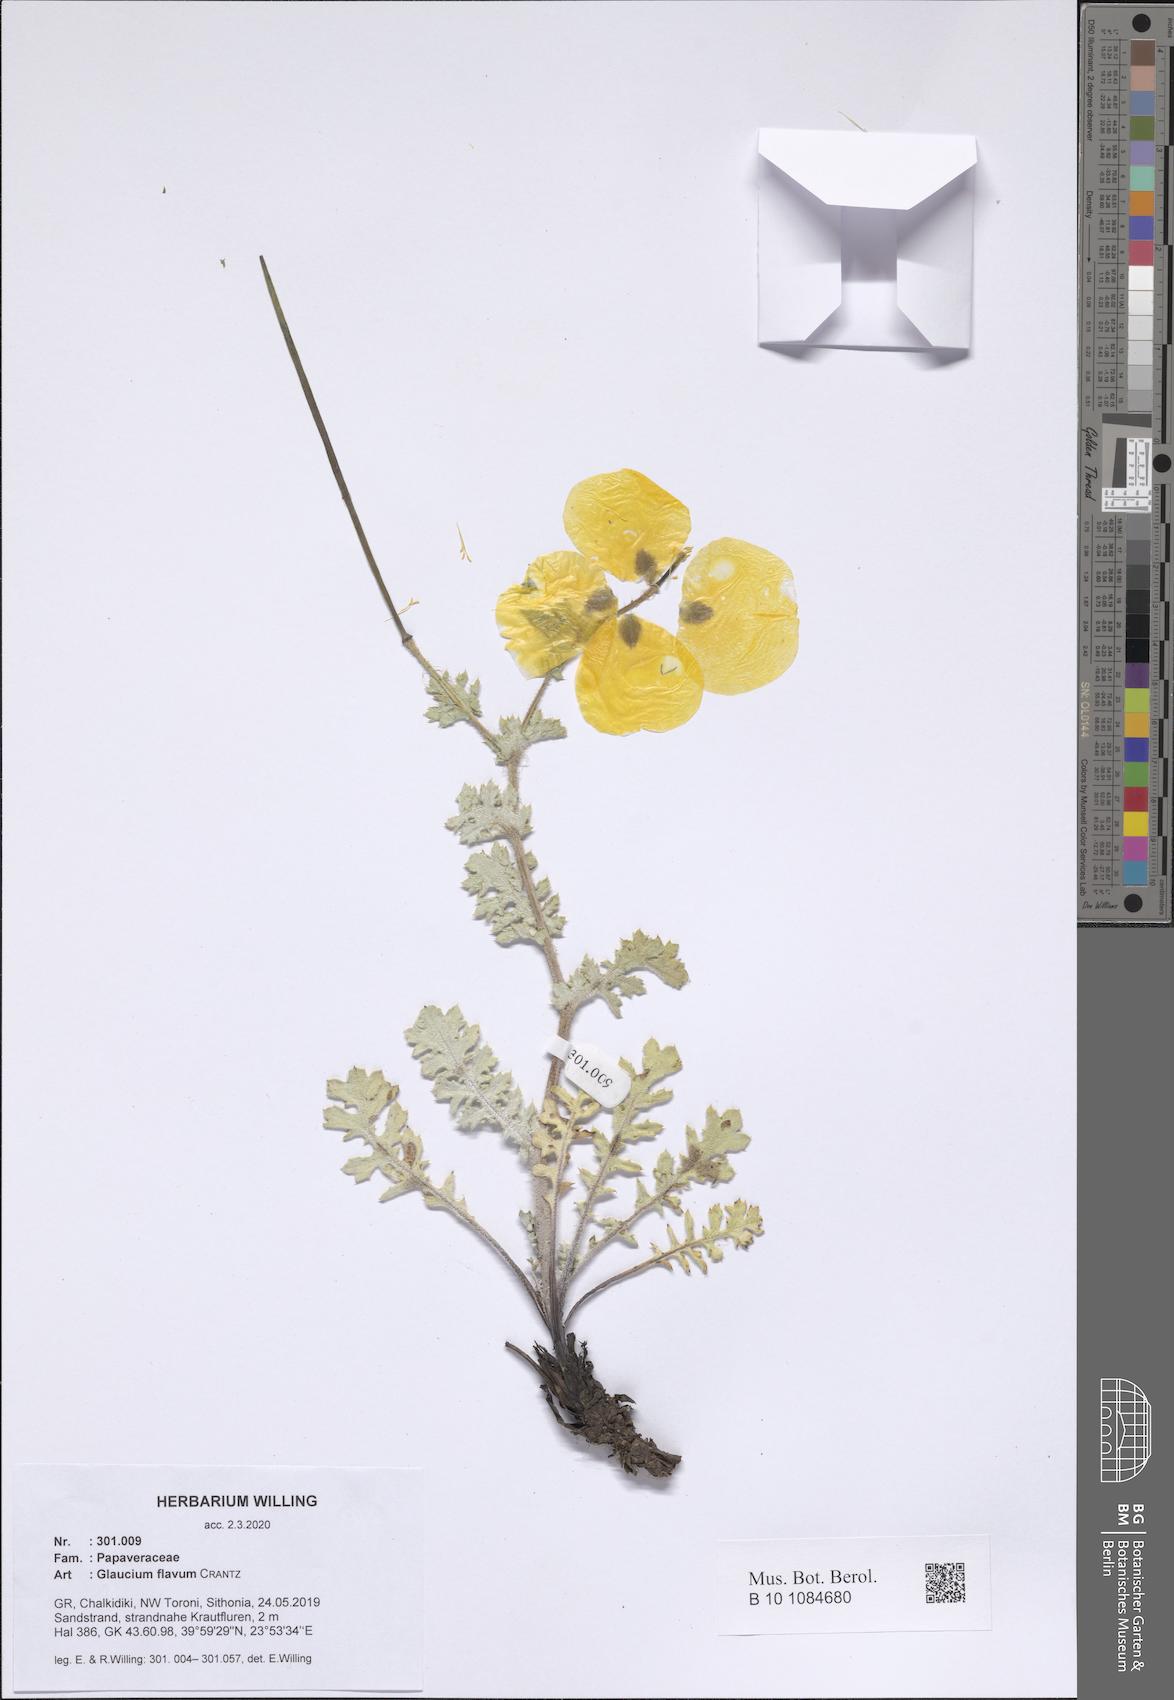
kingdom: Plantae
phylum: Tracheophyta
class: Magnoliopsida
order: Ranunculales
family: Papaveraceae
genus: Glaucium
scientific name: Glaucium flavum
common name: Yellow horned-poppy
